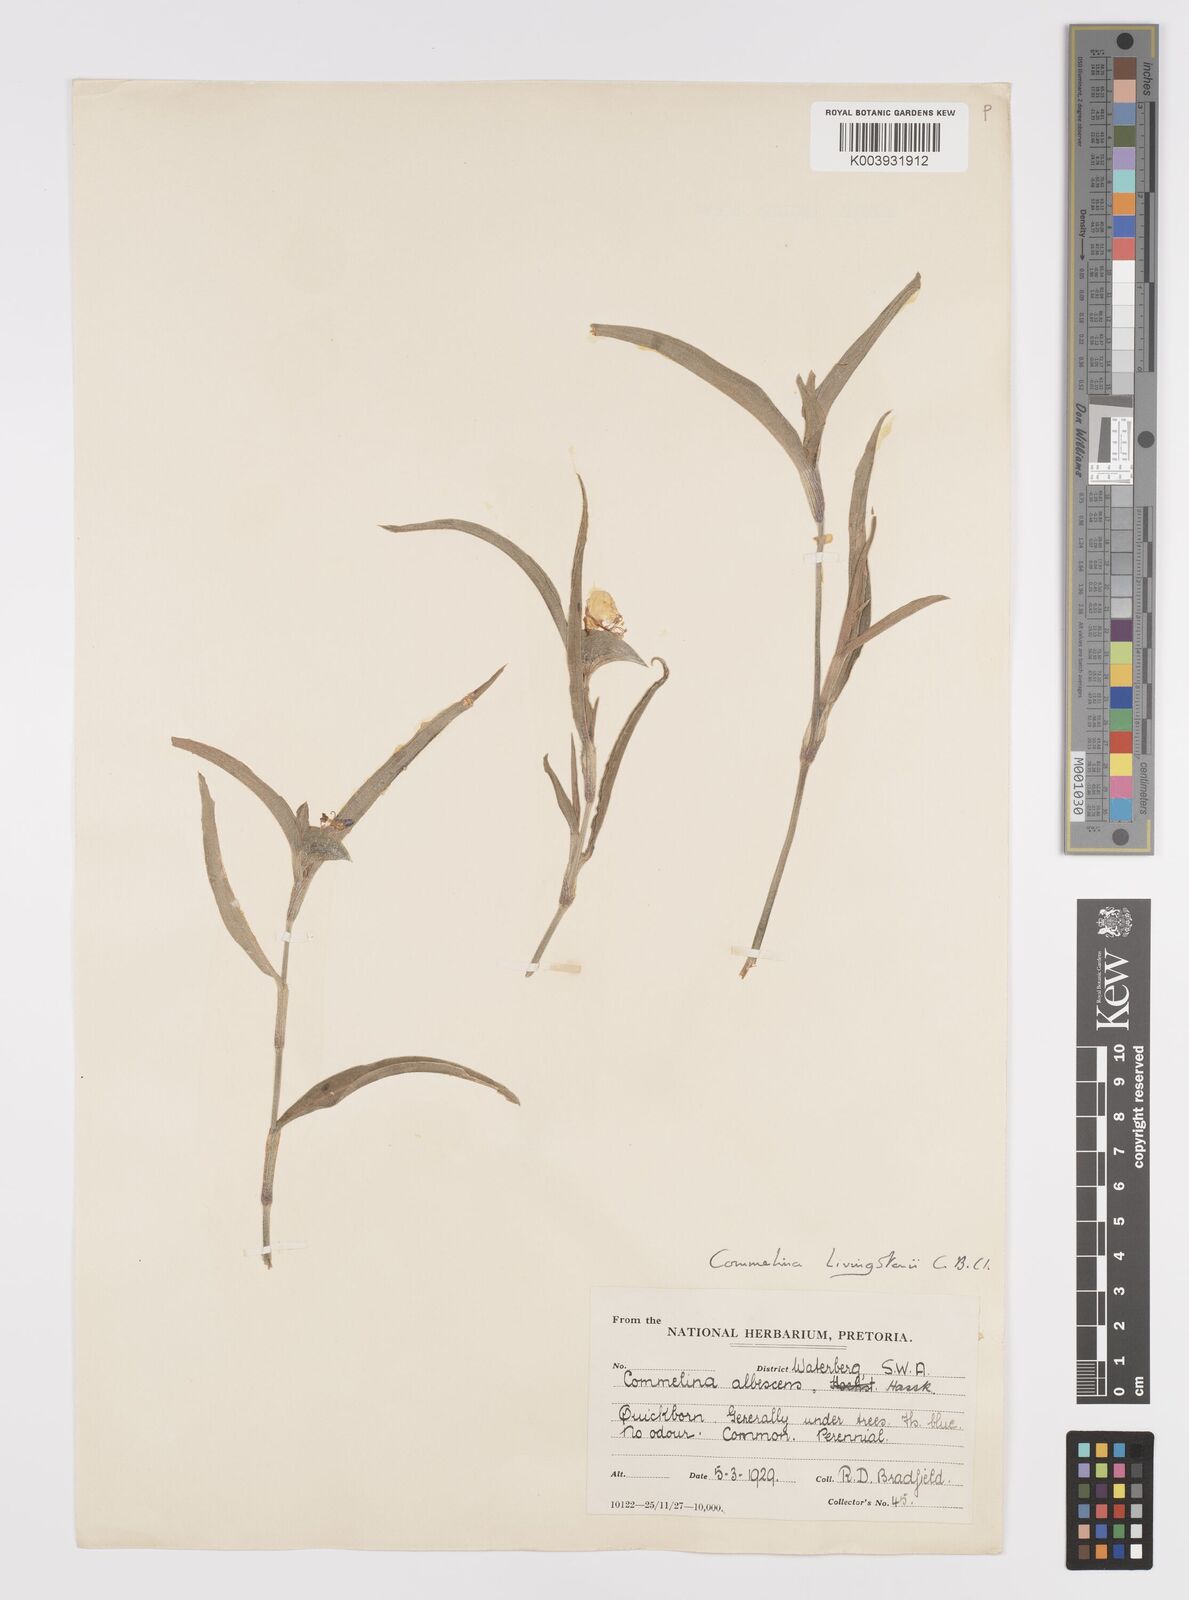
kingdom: Plantae
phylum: Tracheophyta
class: Liliopsida
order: Commelinales
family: Commelinaceae
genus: Commelina
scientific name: Commelina erecta
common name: Blousel blommetjie
